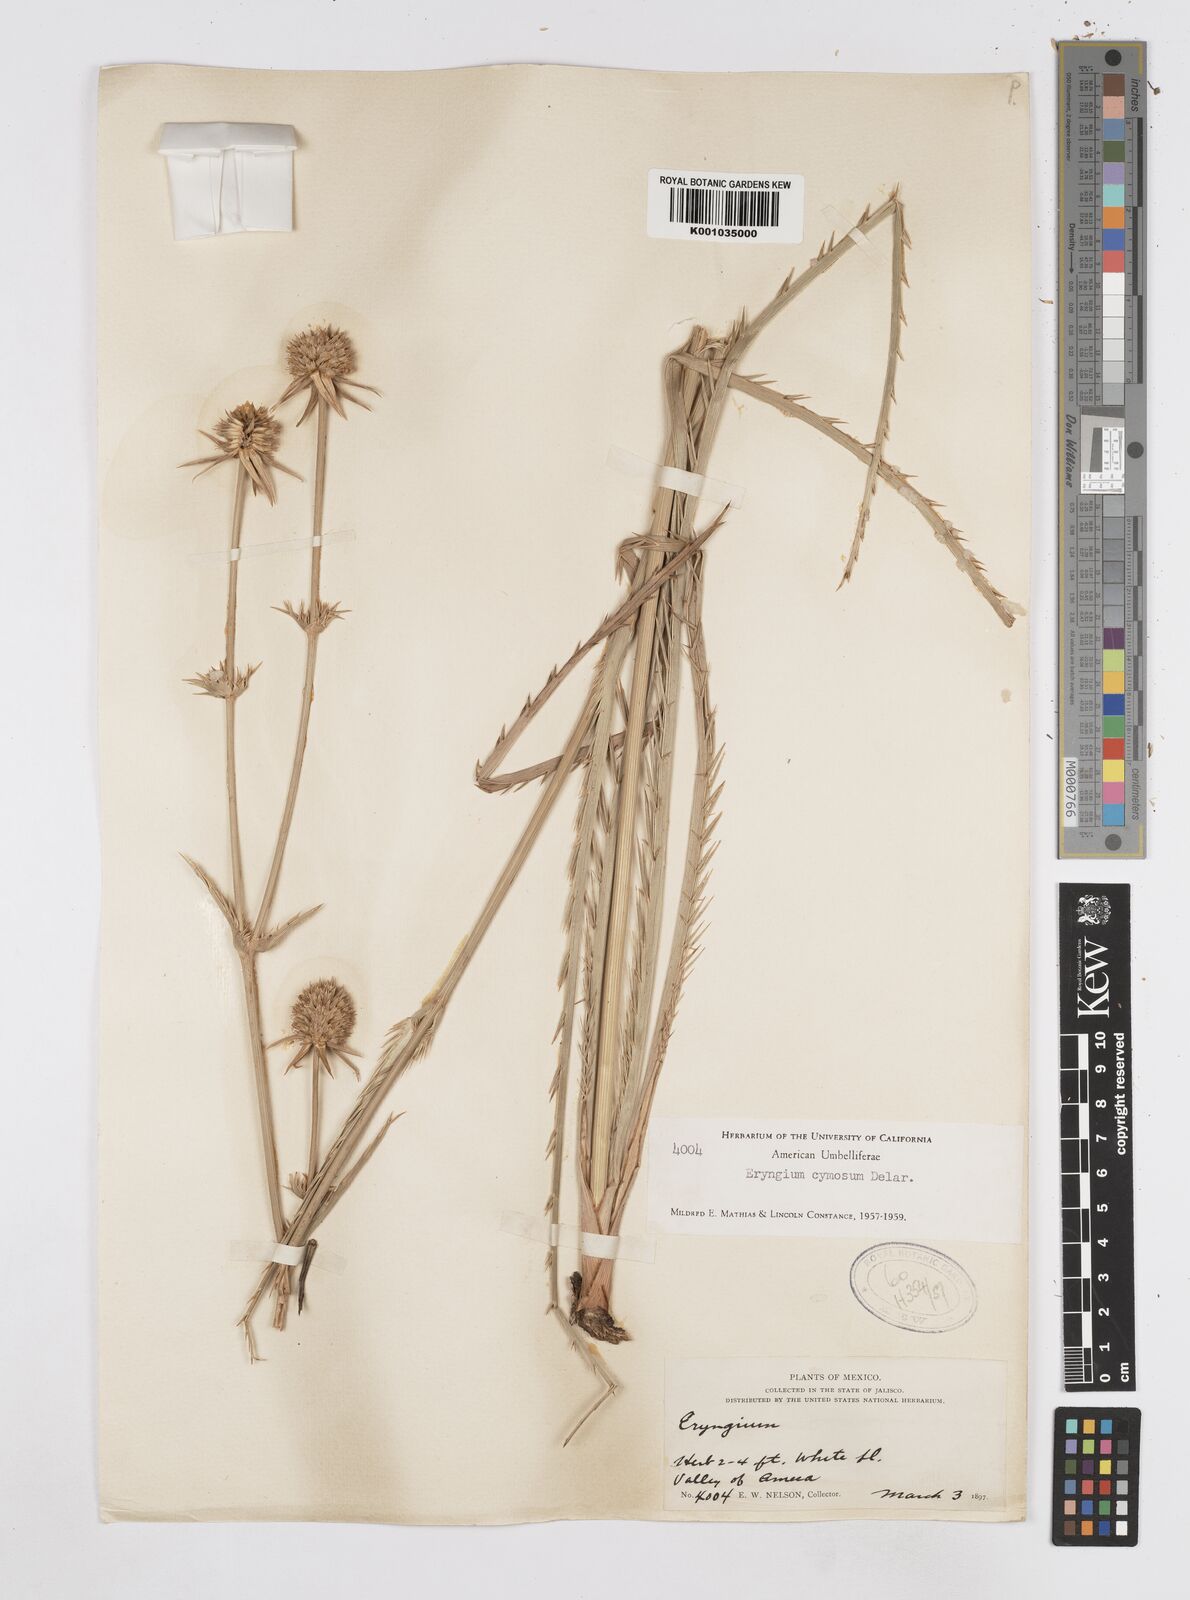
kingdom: Plantae
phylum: Tracheophyta
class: Magnoliopsida
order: Apiales
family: Apiaceae
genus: Eryngium
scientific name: Eryngium cymosum
